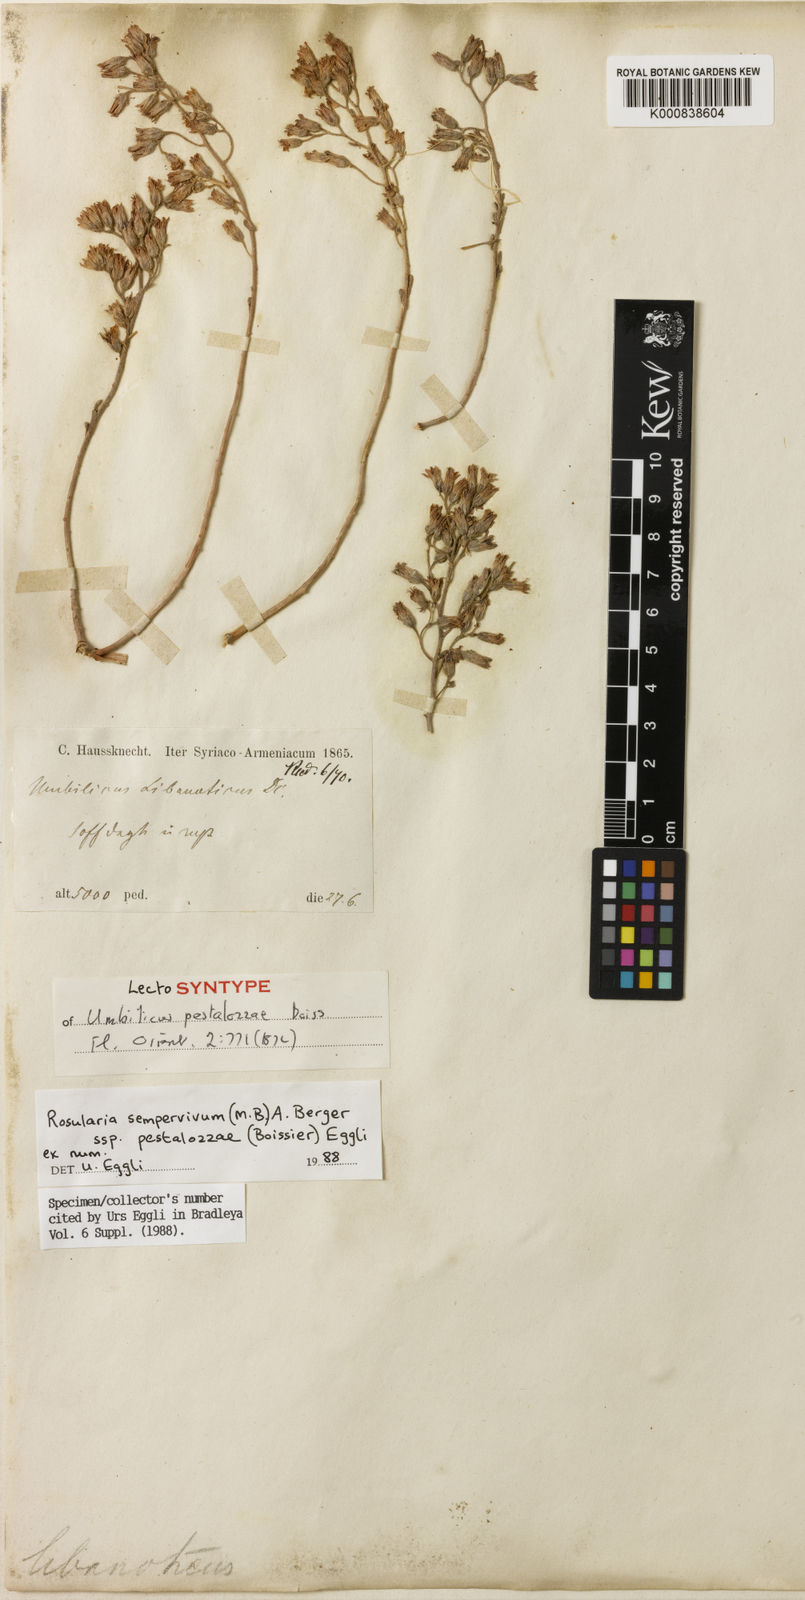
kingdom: Plantae
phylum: Tracheophyta
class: Magnoliopsida
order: Saxifragales
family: Crassulaceae
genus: Rosularia
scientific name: Rosularia sempervivum
